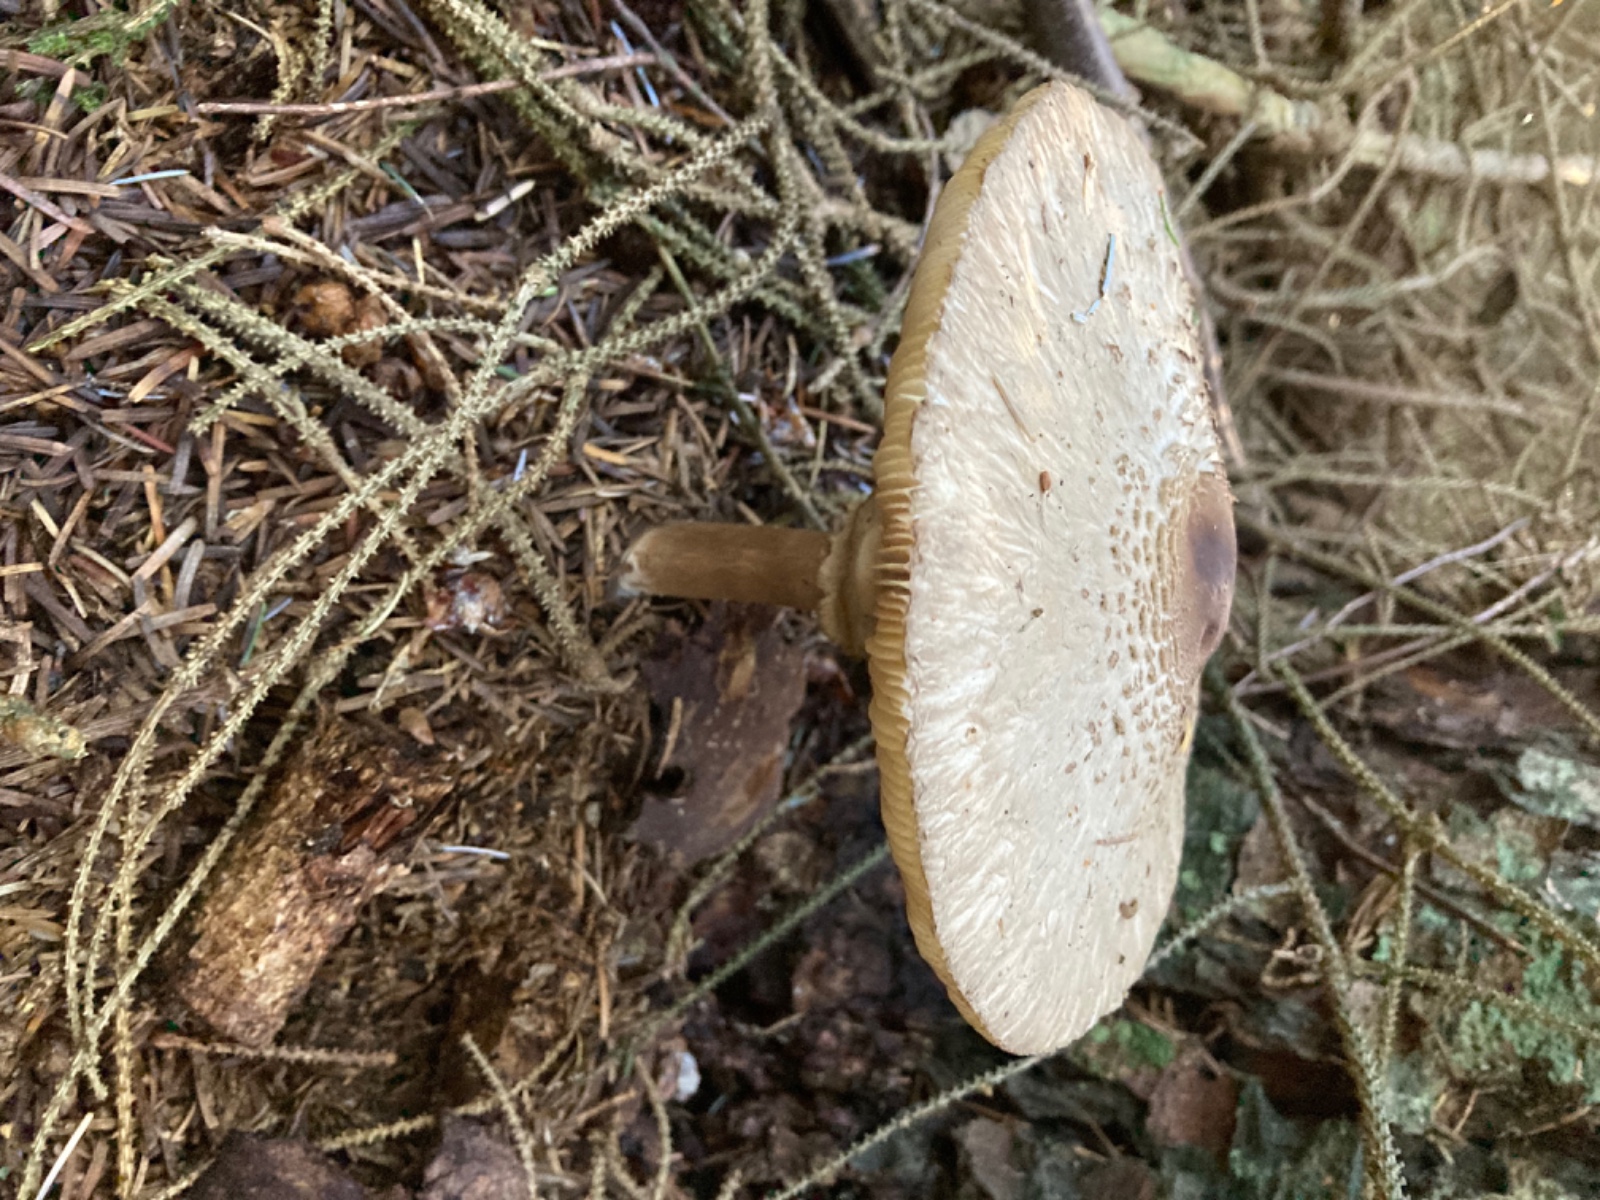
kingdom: Fungi
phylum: Basidiomycota
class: Agaricomycetes
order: Agaricales
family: Agaricaceae
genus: Chlorophyllum
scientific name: Chlorophyllum olivieri
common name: almindelig rabarberhat
